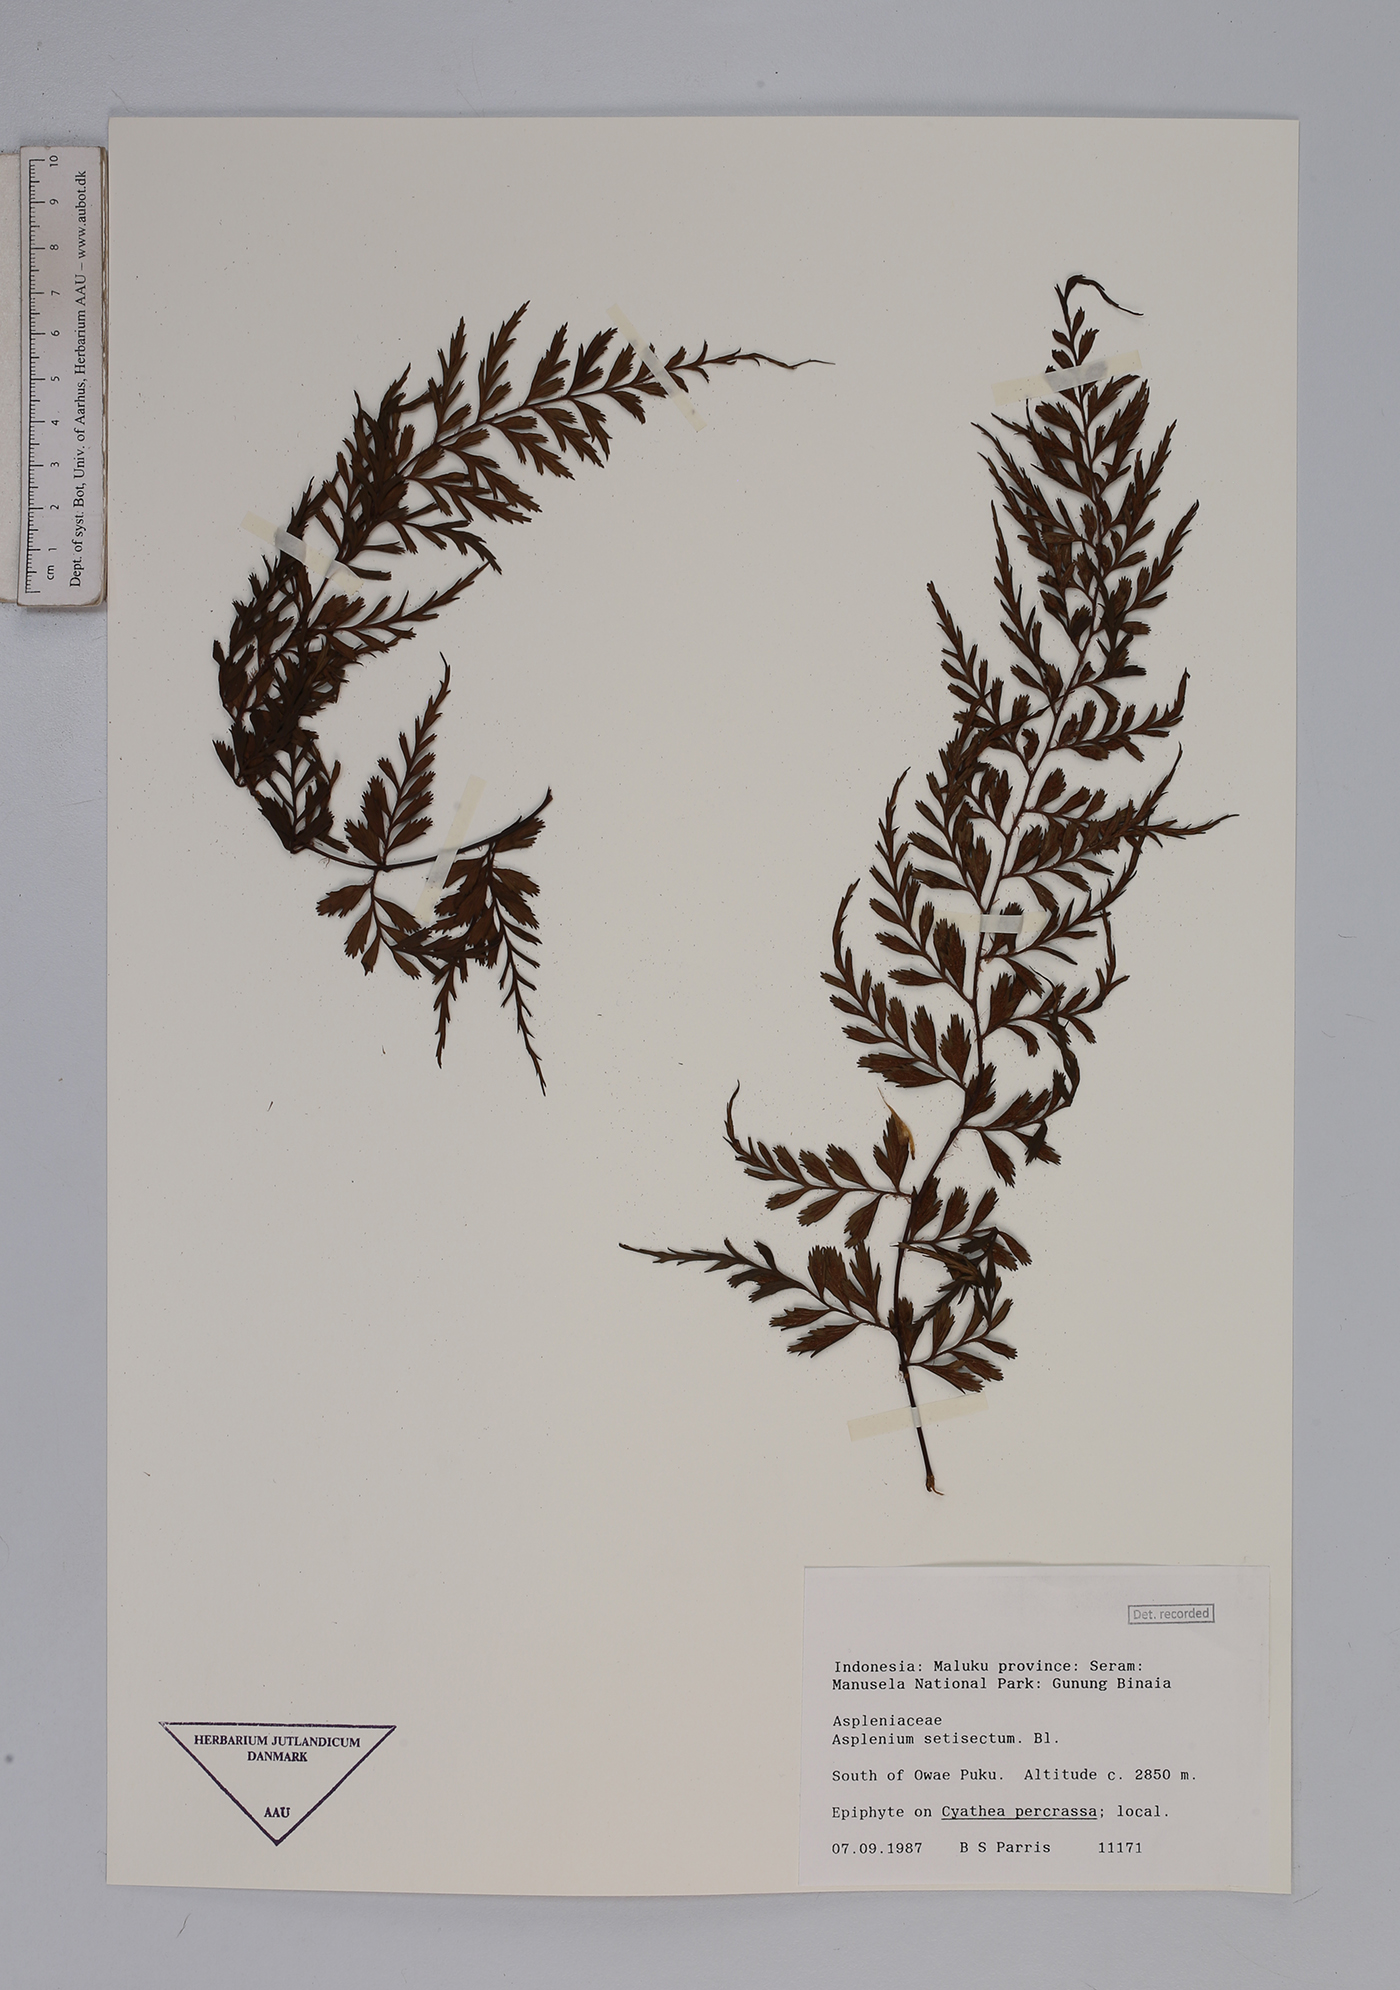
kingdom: Plantae
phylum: Tracheophyta
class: Polypodiopsida
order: Polypodiales
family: Aspleniaceae
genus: Asplenium
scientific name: Asplenium setisectum
